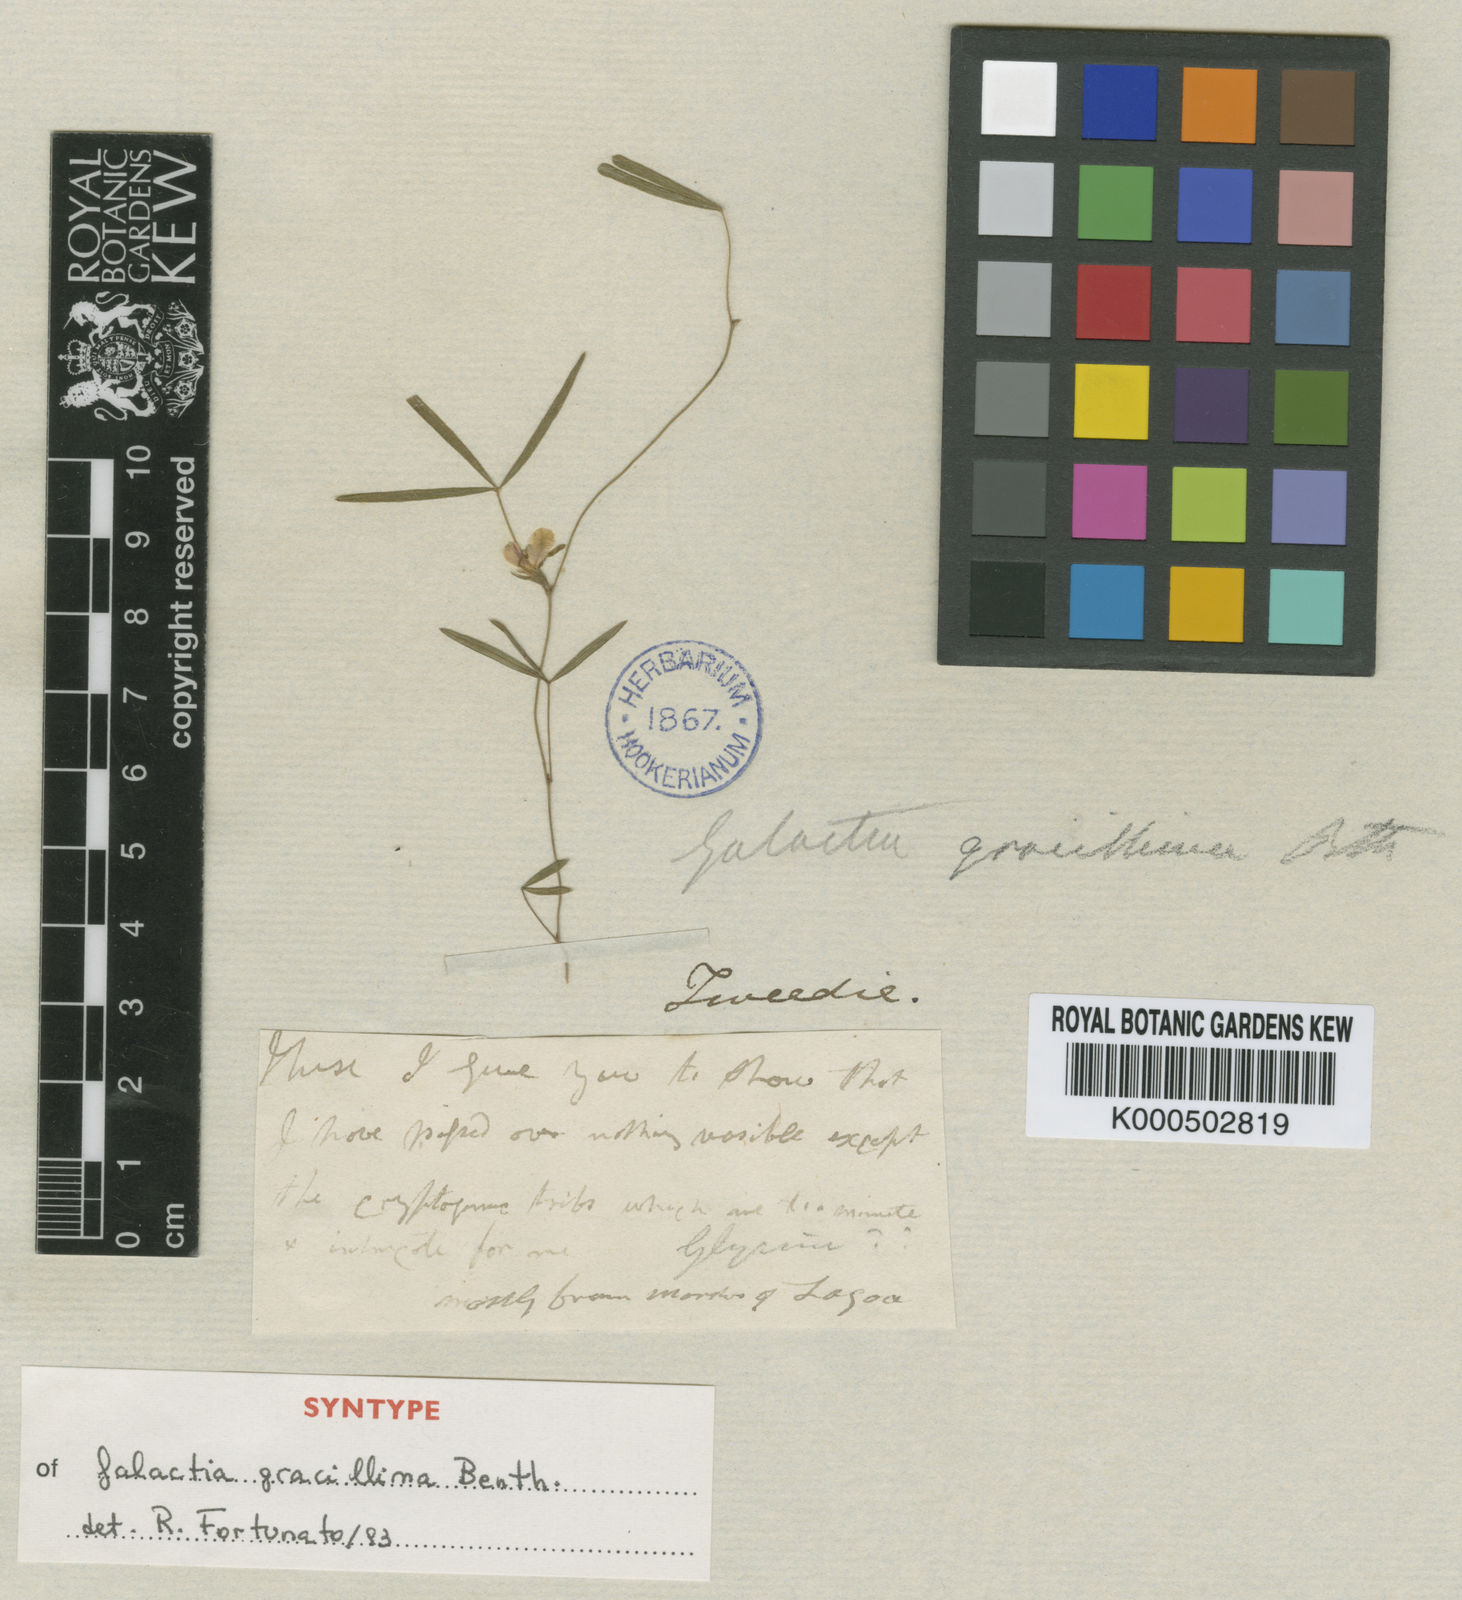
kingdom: Plantae
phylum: Tracheophyta
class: Magnoliopsida
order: Fabales
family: Fabaceae
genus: Betencourtia
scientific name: Betencourtia gracillima
